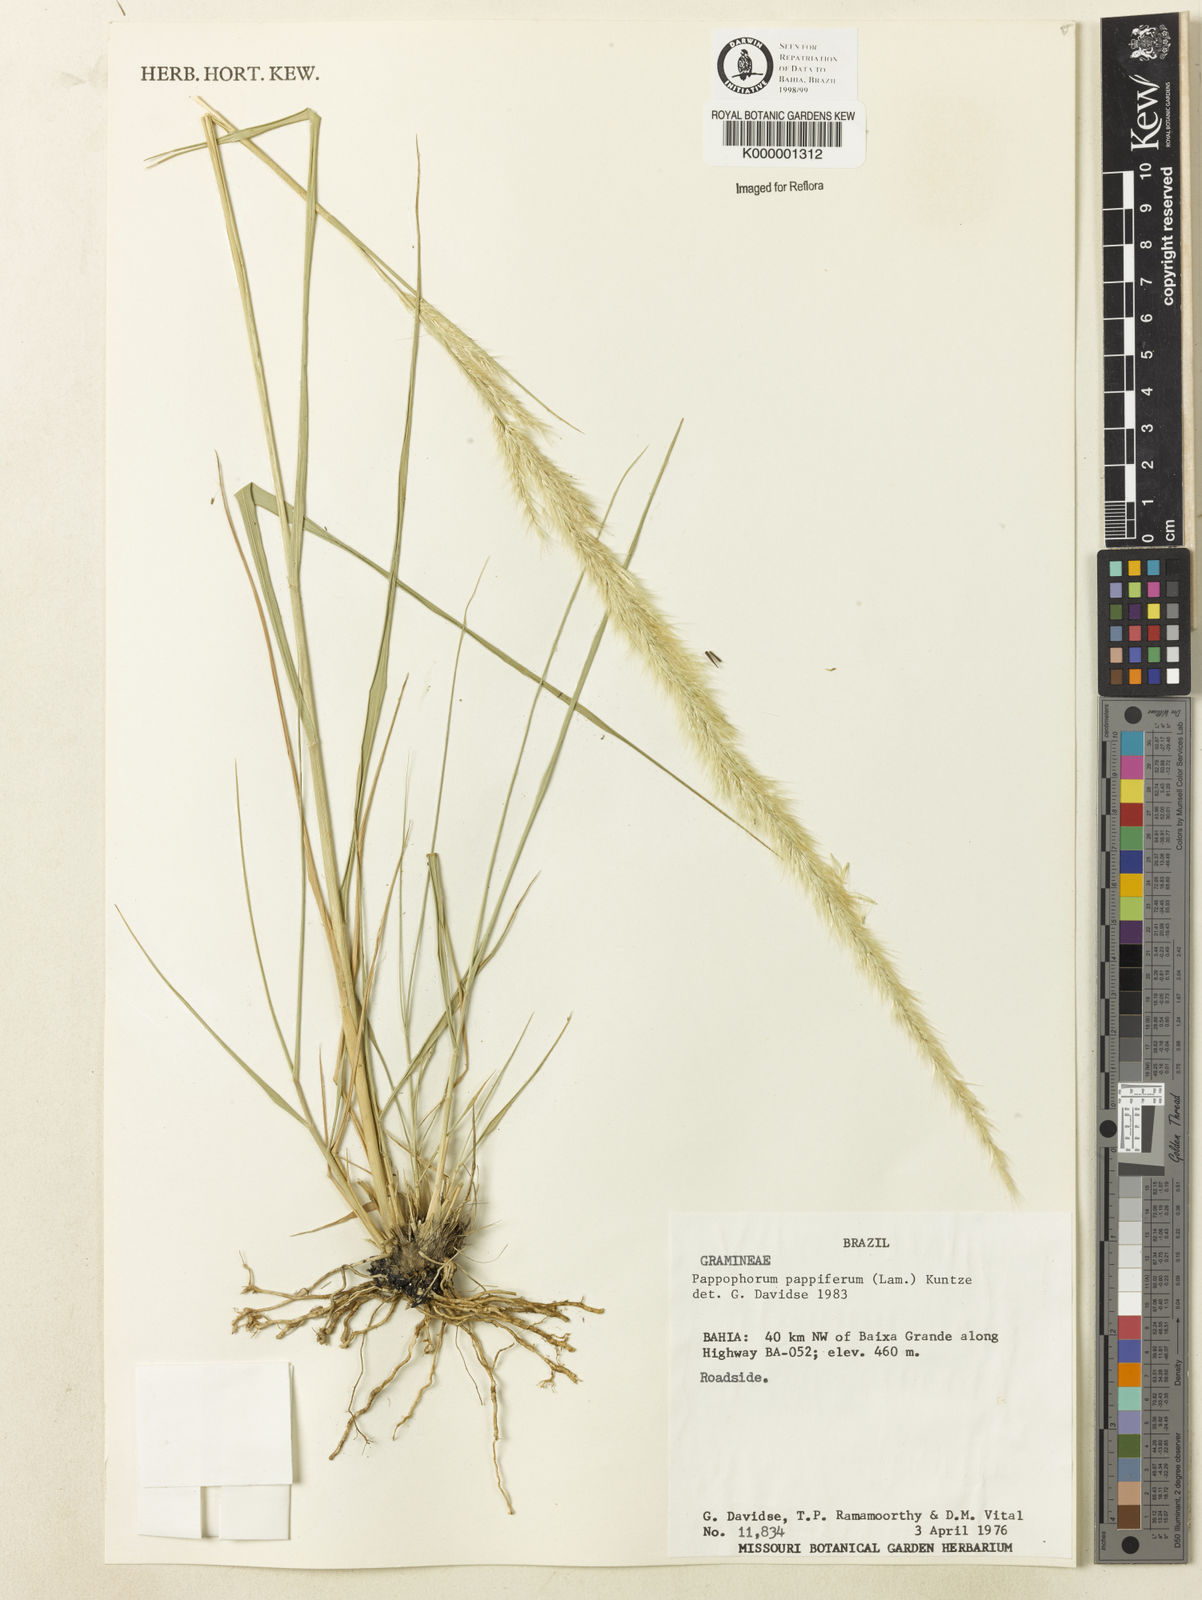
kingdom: Plantae
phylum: Tracheophyta
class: Liliopsida
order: Poales
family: Poaceae
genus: Pappophorum
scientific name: Pappophorum krapovickasii
